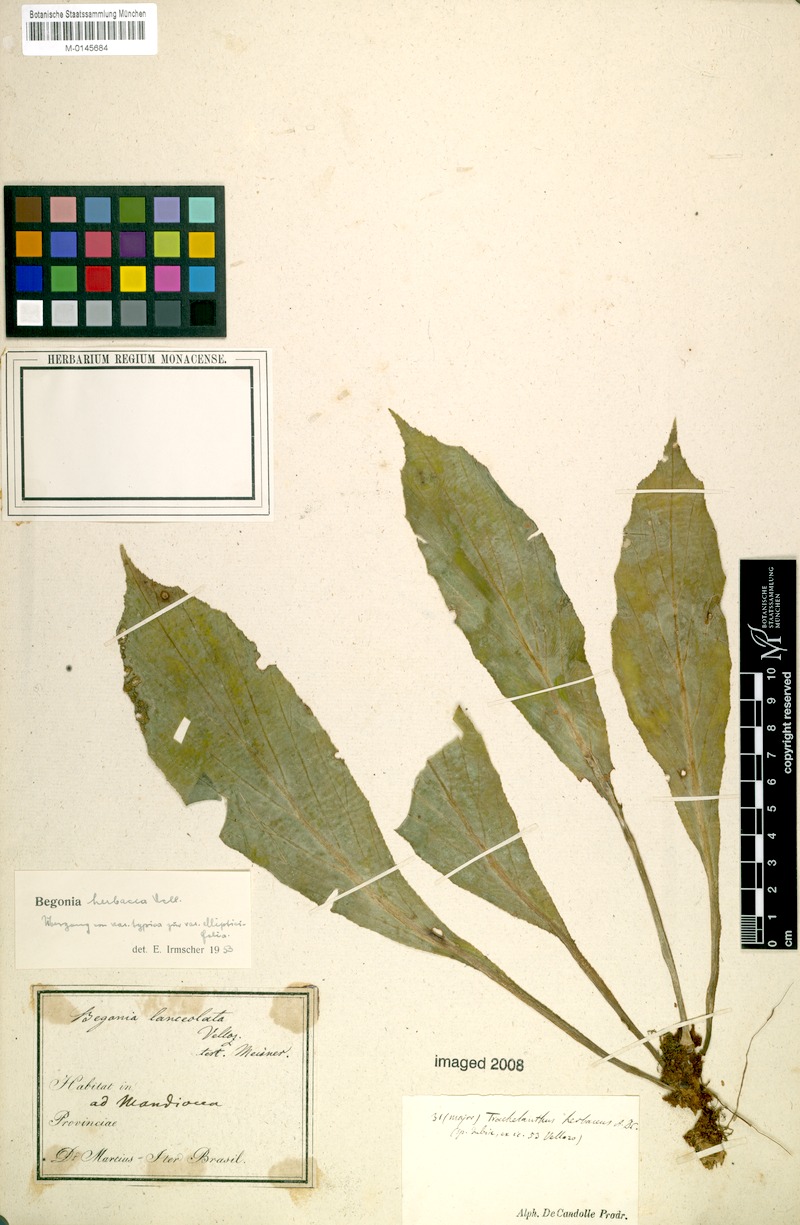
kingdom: Plantae
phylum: Tracheophyta
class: Magnoliopsida
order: Cucurbitales
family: Begoniaceae
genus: Begonia
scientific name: Begonia herbacea
